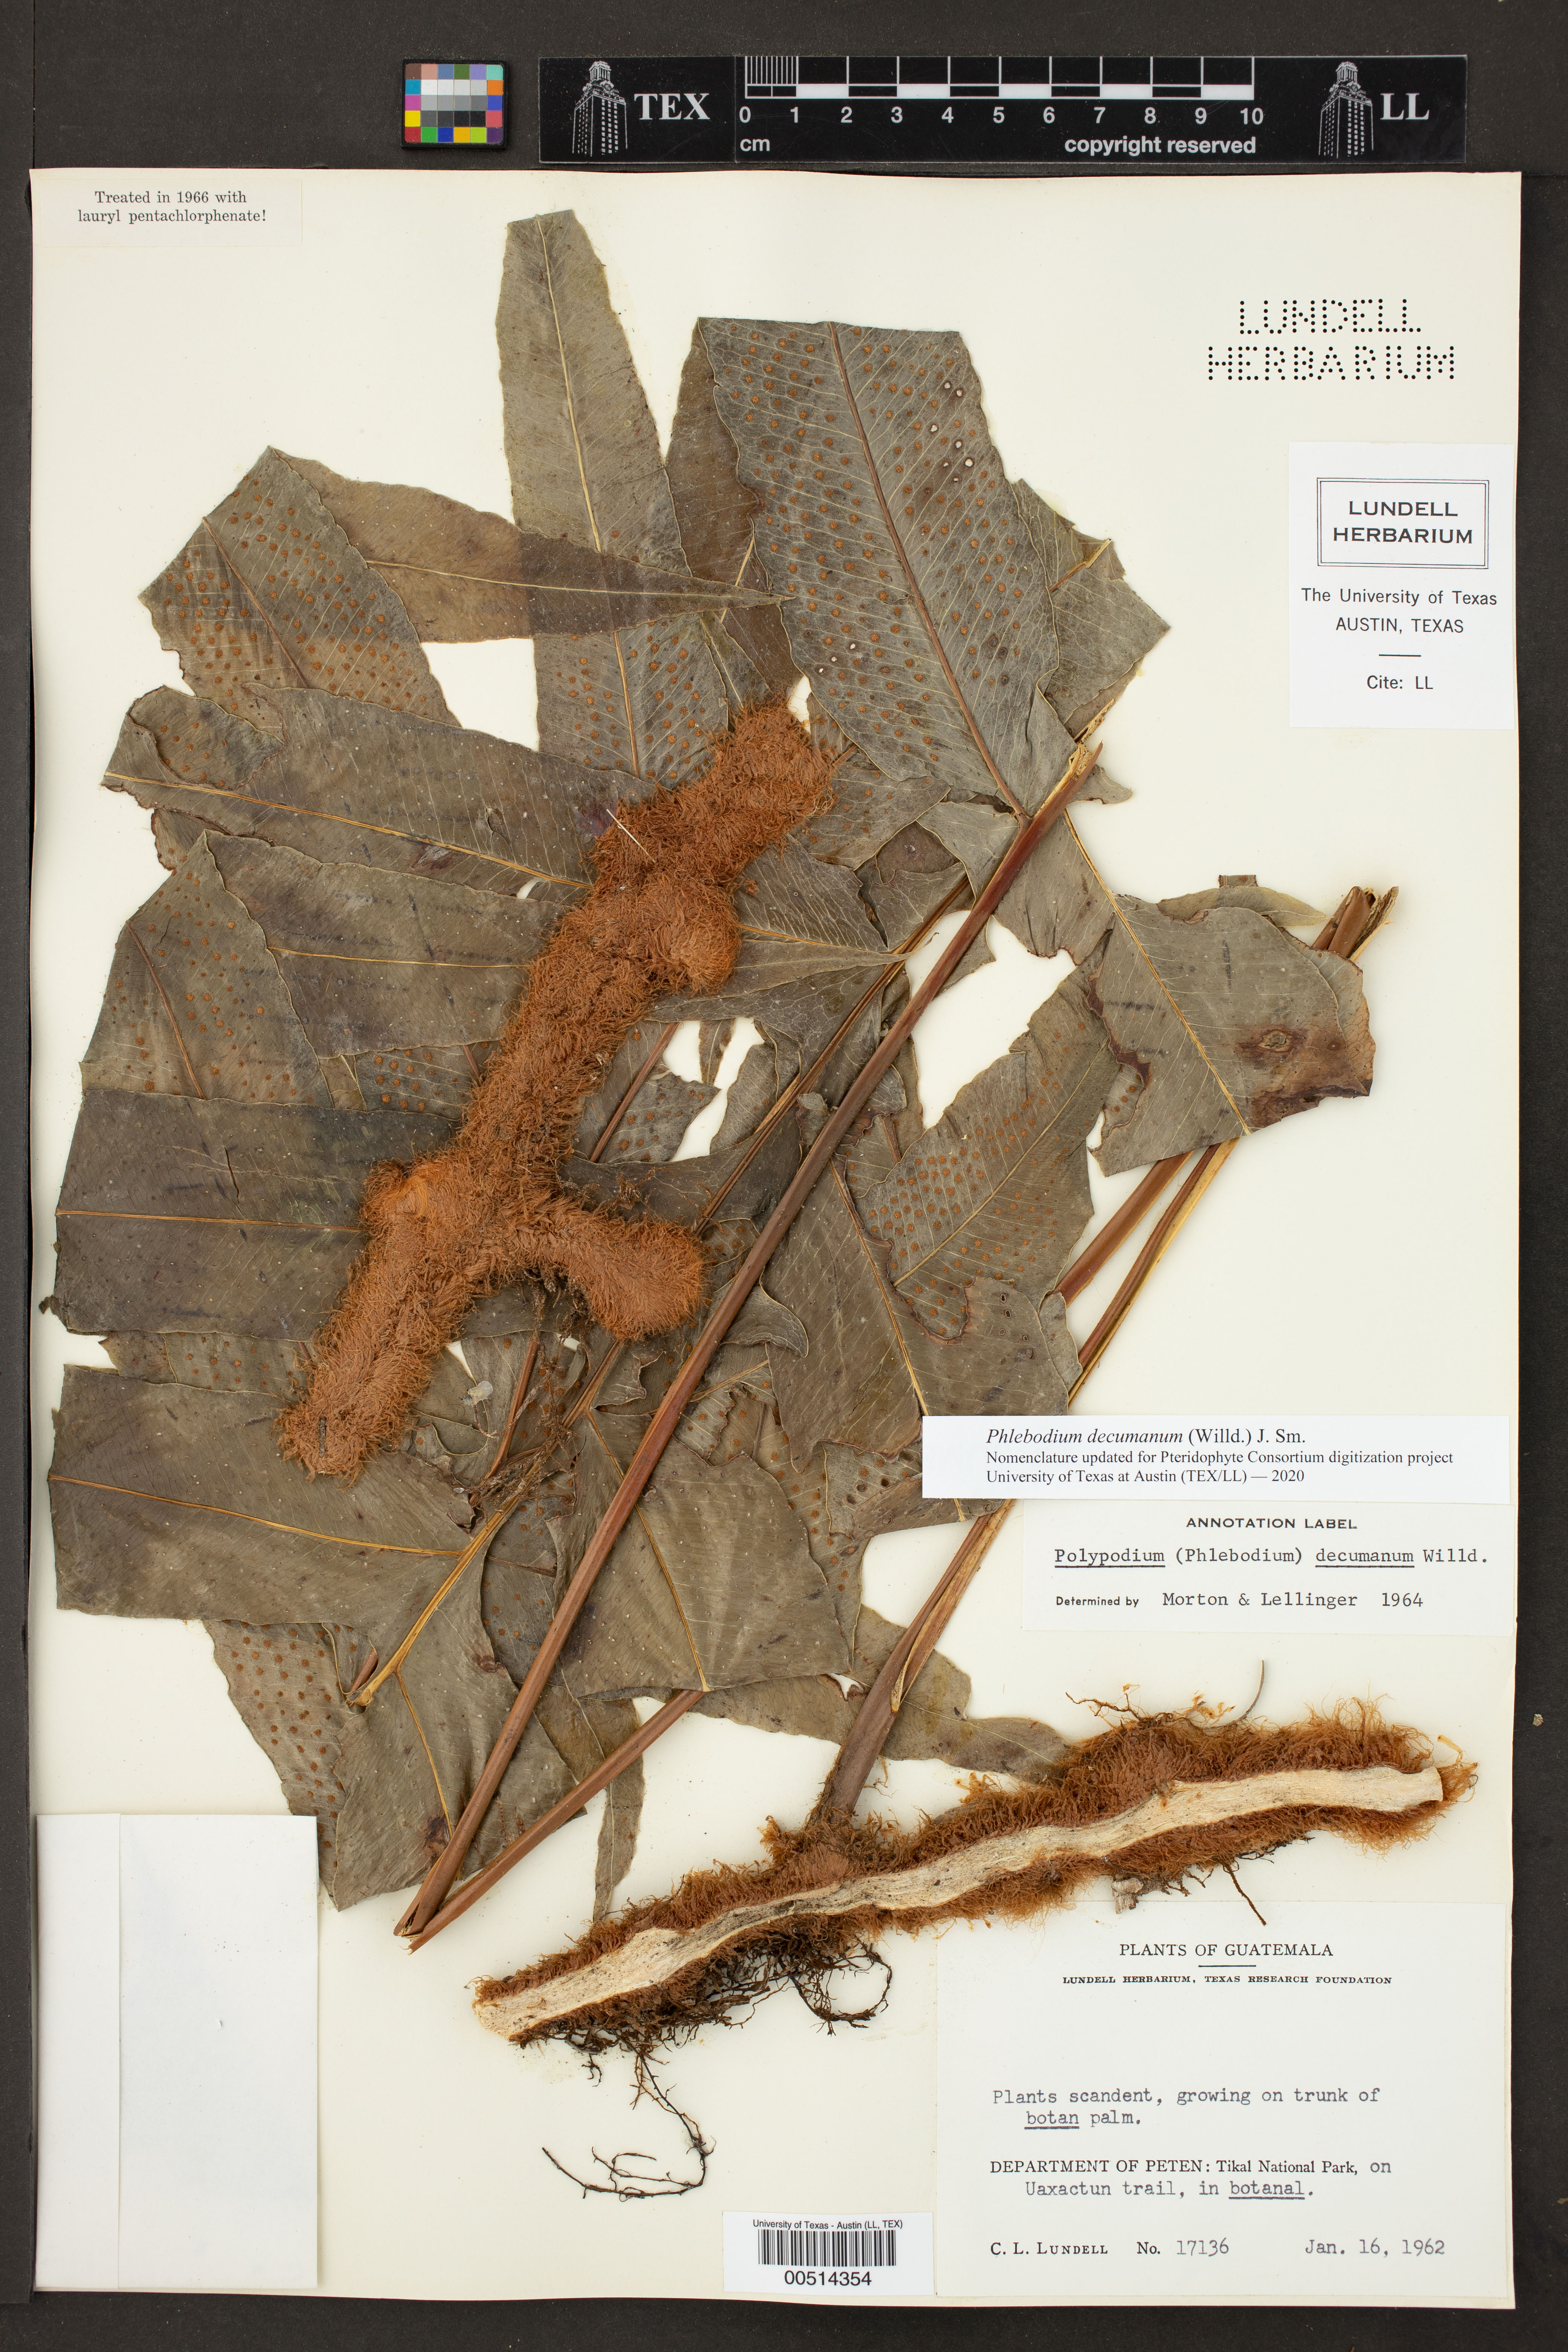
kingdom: Plantae
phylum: Tracheophyta
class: Polypodiopsida
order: Polypodiales
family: Polypodiaceae
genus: Phlebodium
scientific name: Phlebodium decumanum
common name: Golden polypod
